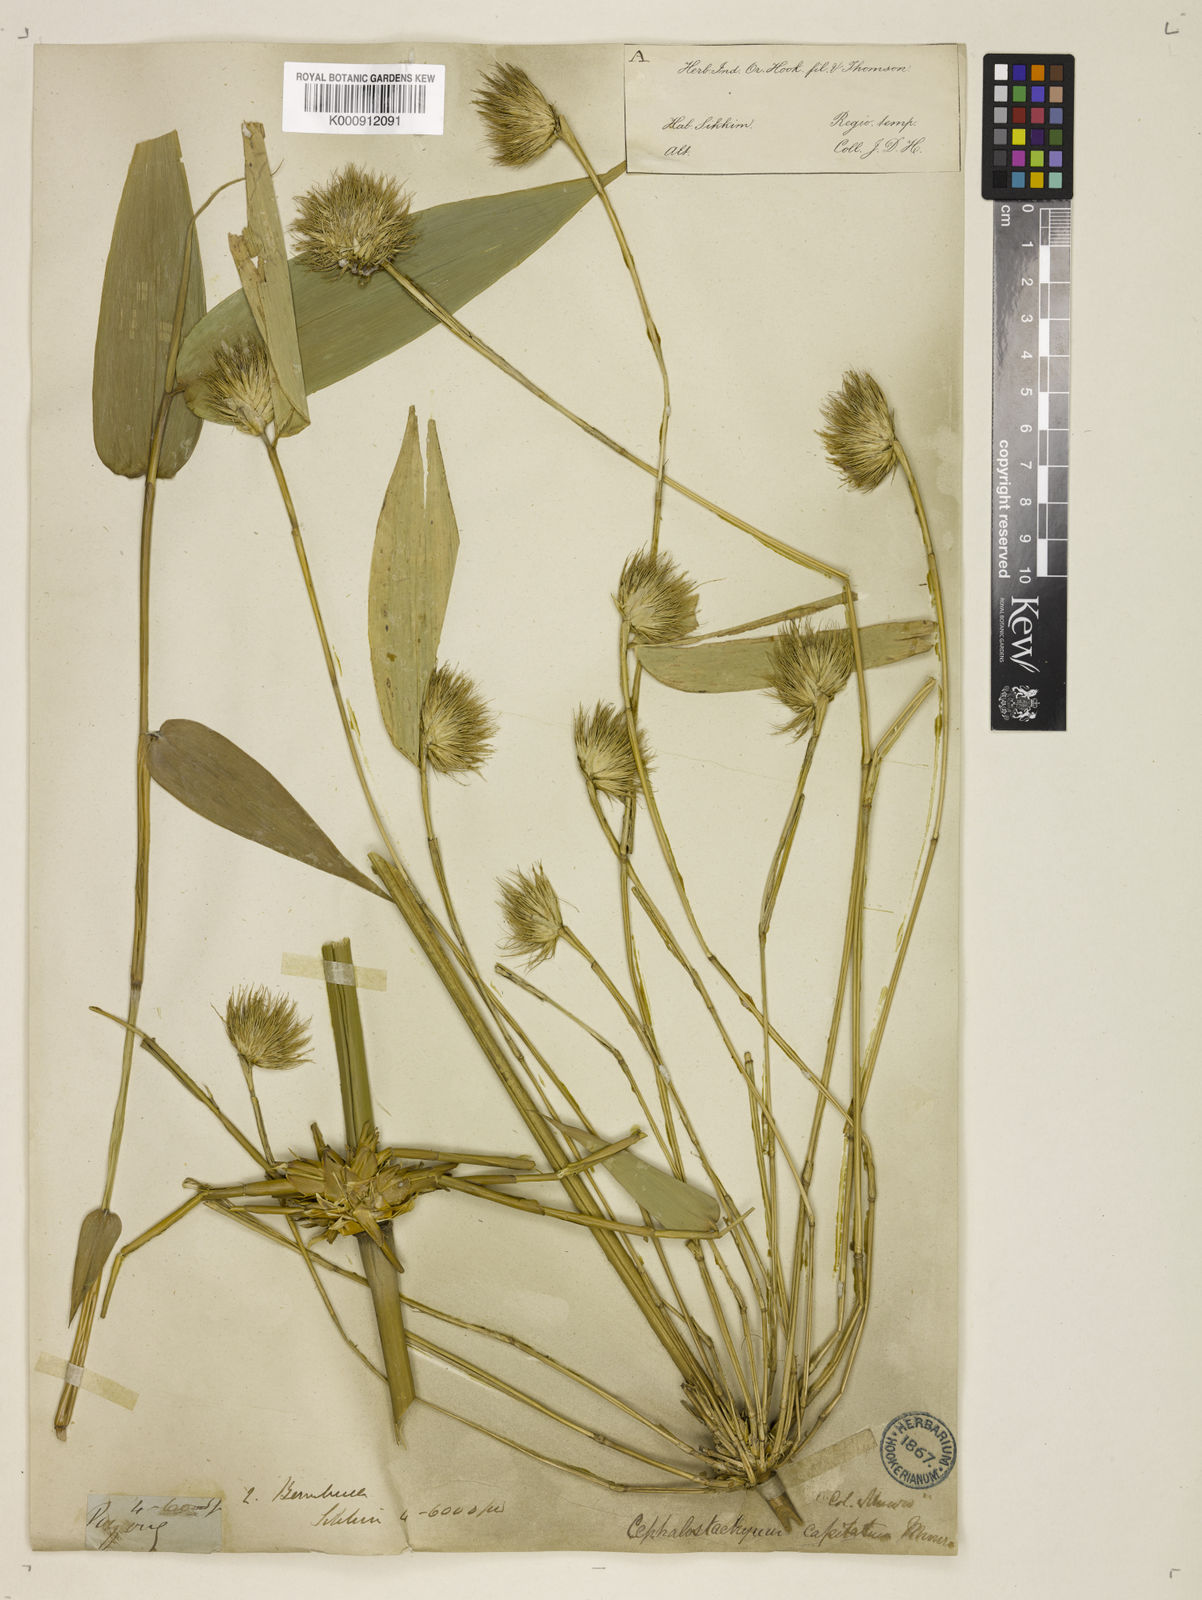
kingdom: Plantae
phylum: Tracheophyta
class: Liliopsida
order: Poales
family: Poaceae
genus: Cephalostachyum
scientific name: Cephalostachyum capitatum
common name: Hollow bamboo
